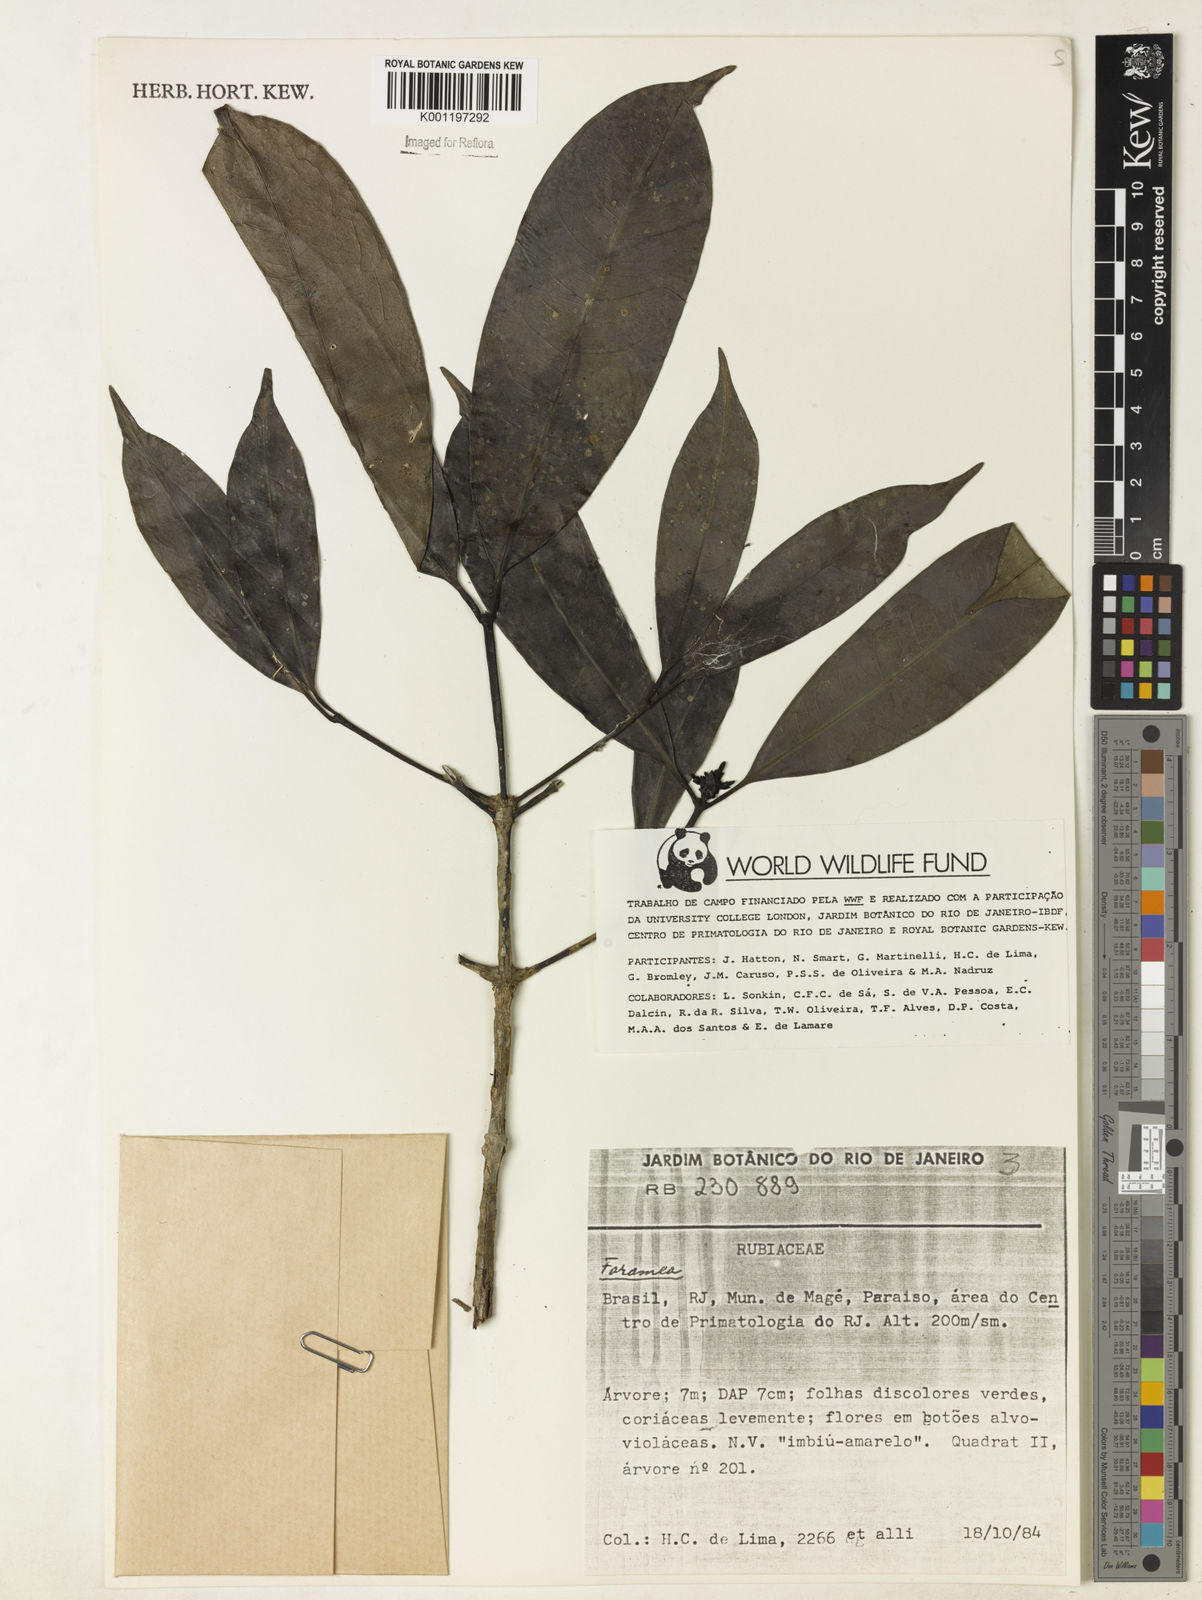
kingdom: Plantae
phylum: Tracheophyta
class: Magnoliopsida
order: Gentianales
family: Rubiaceae
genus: Faramea
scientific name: Faramea
